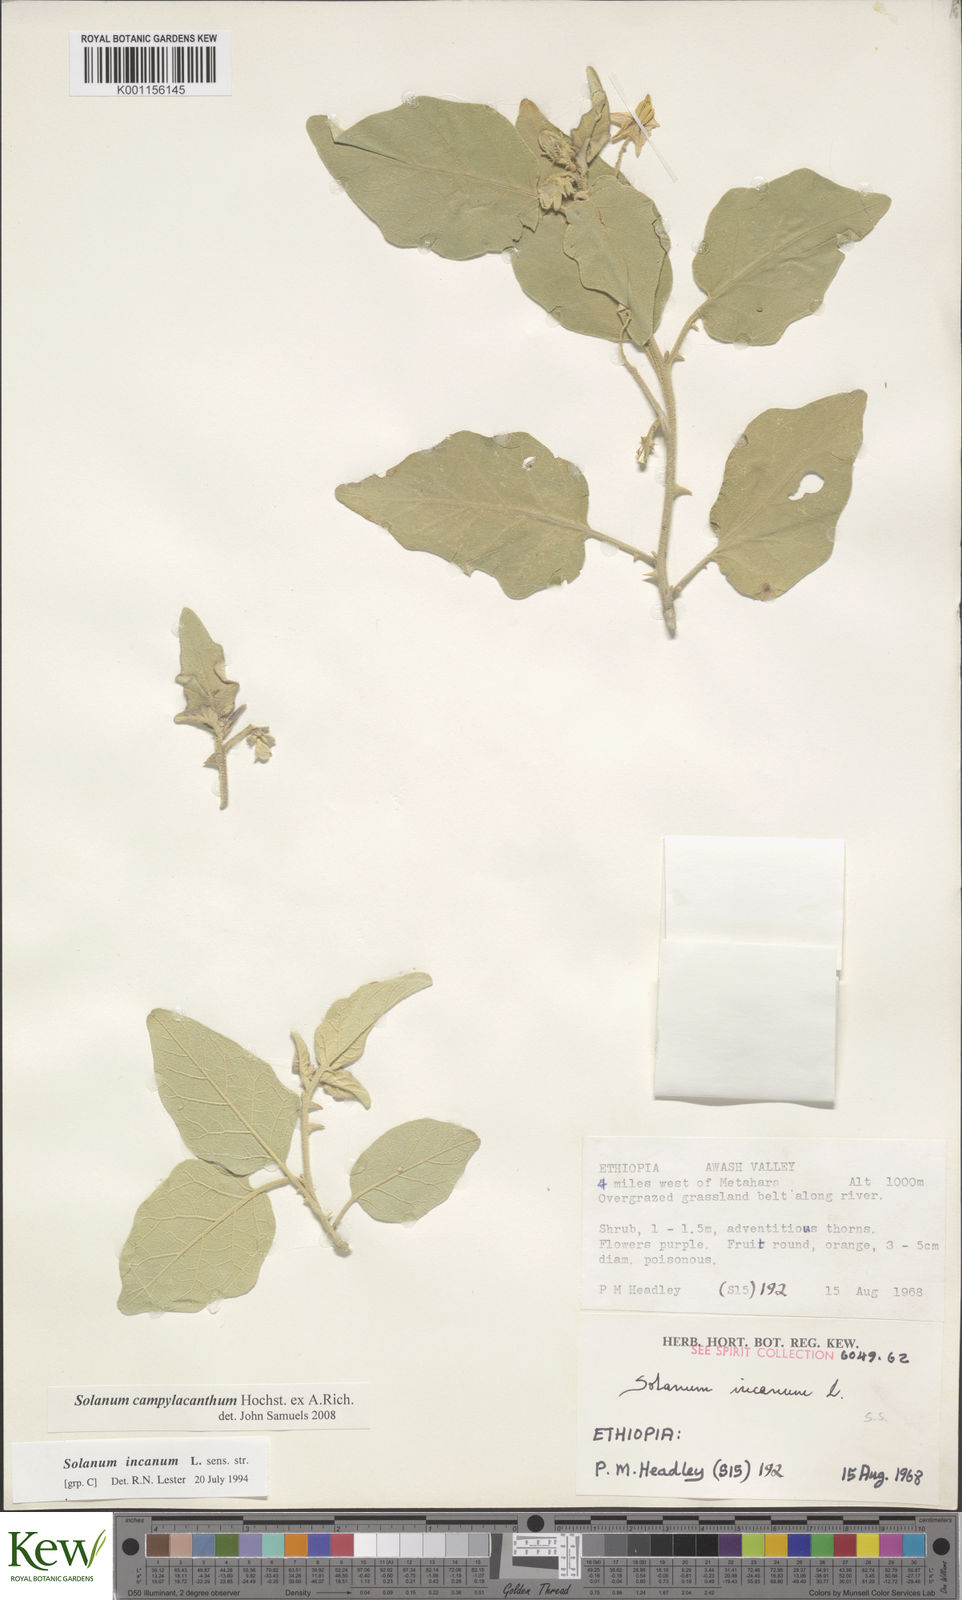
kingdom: Plantae
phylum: Tracheophyta
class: Magnoliopsida
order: Solanales
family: Solanaceae
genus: Solanum
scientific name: Solanum campylacanthum
